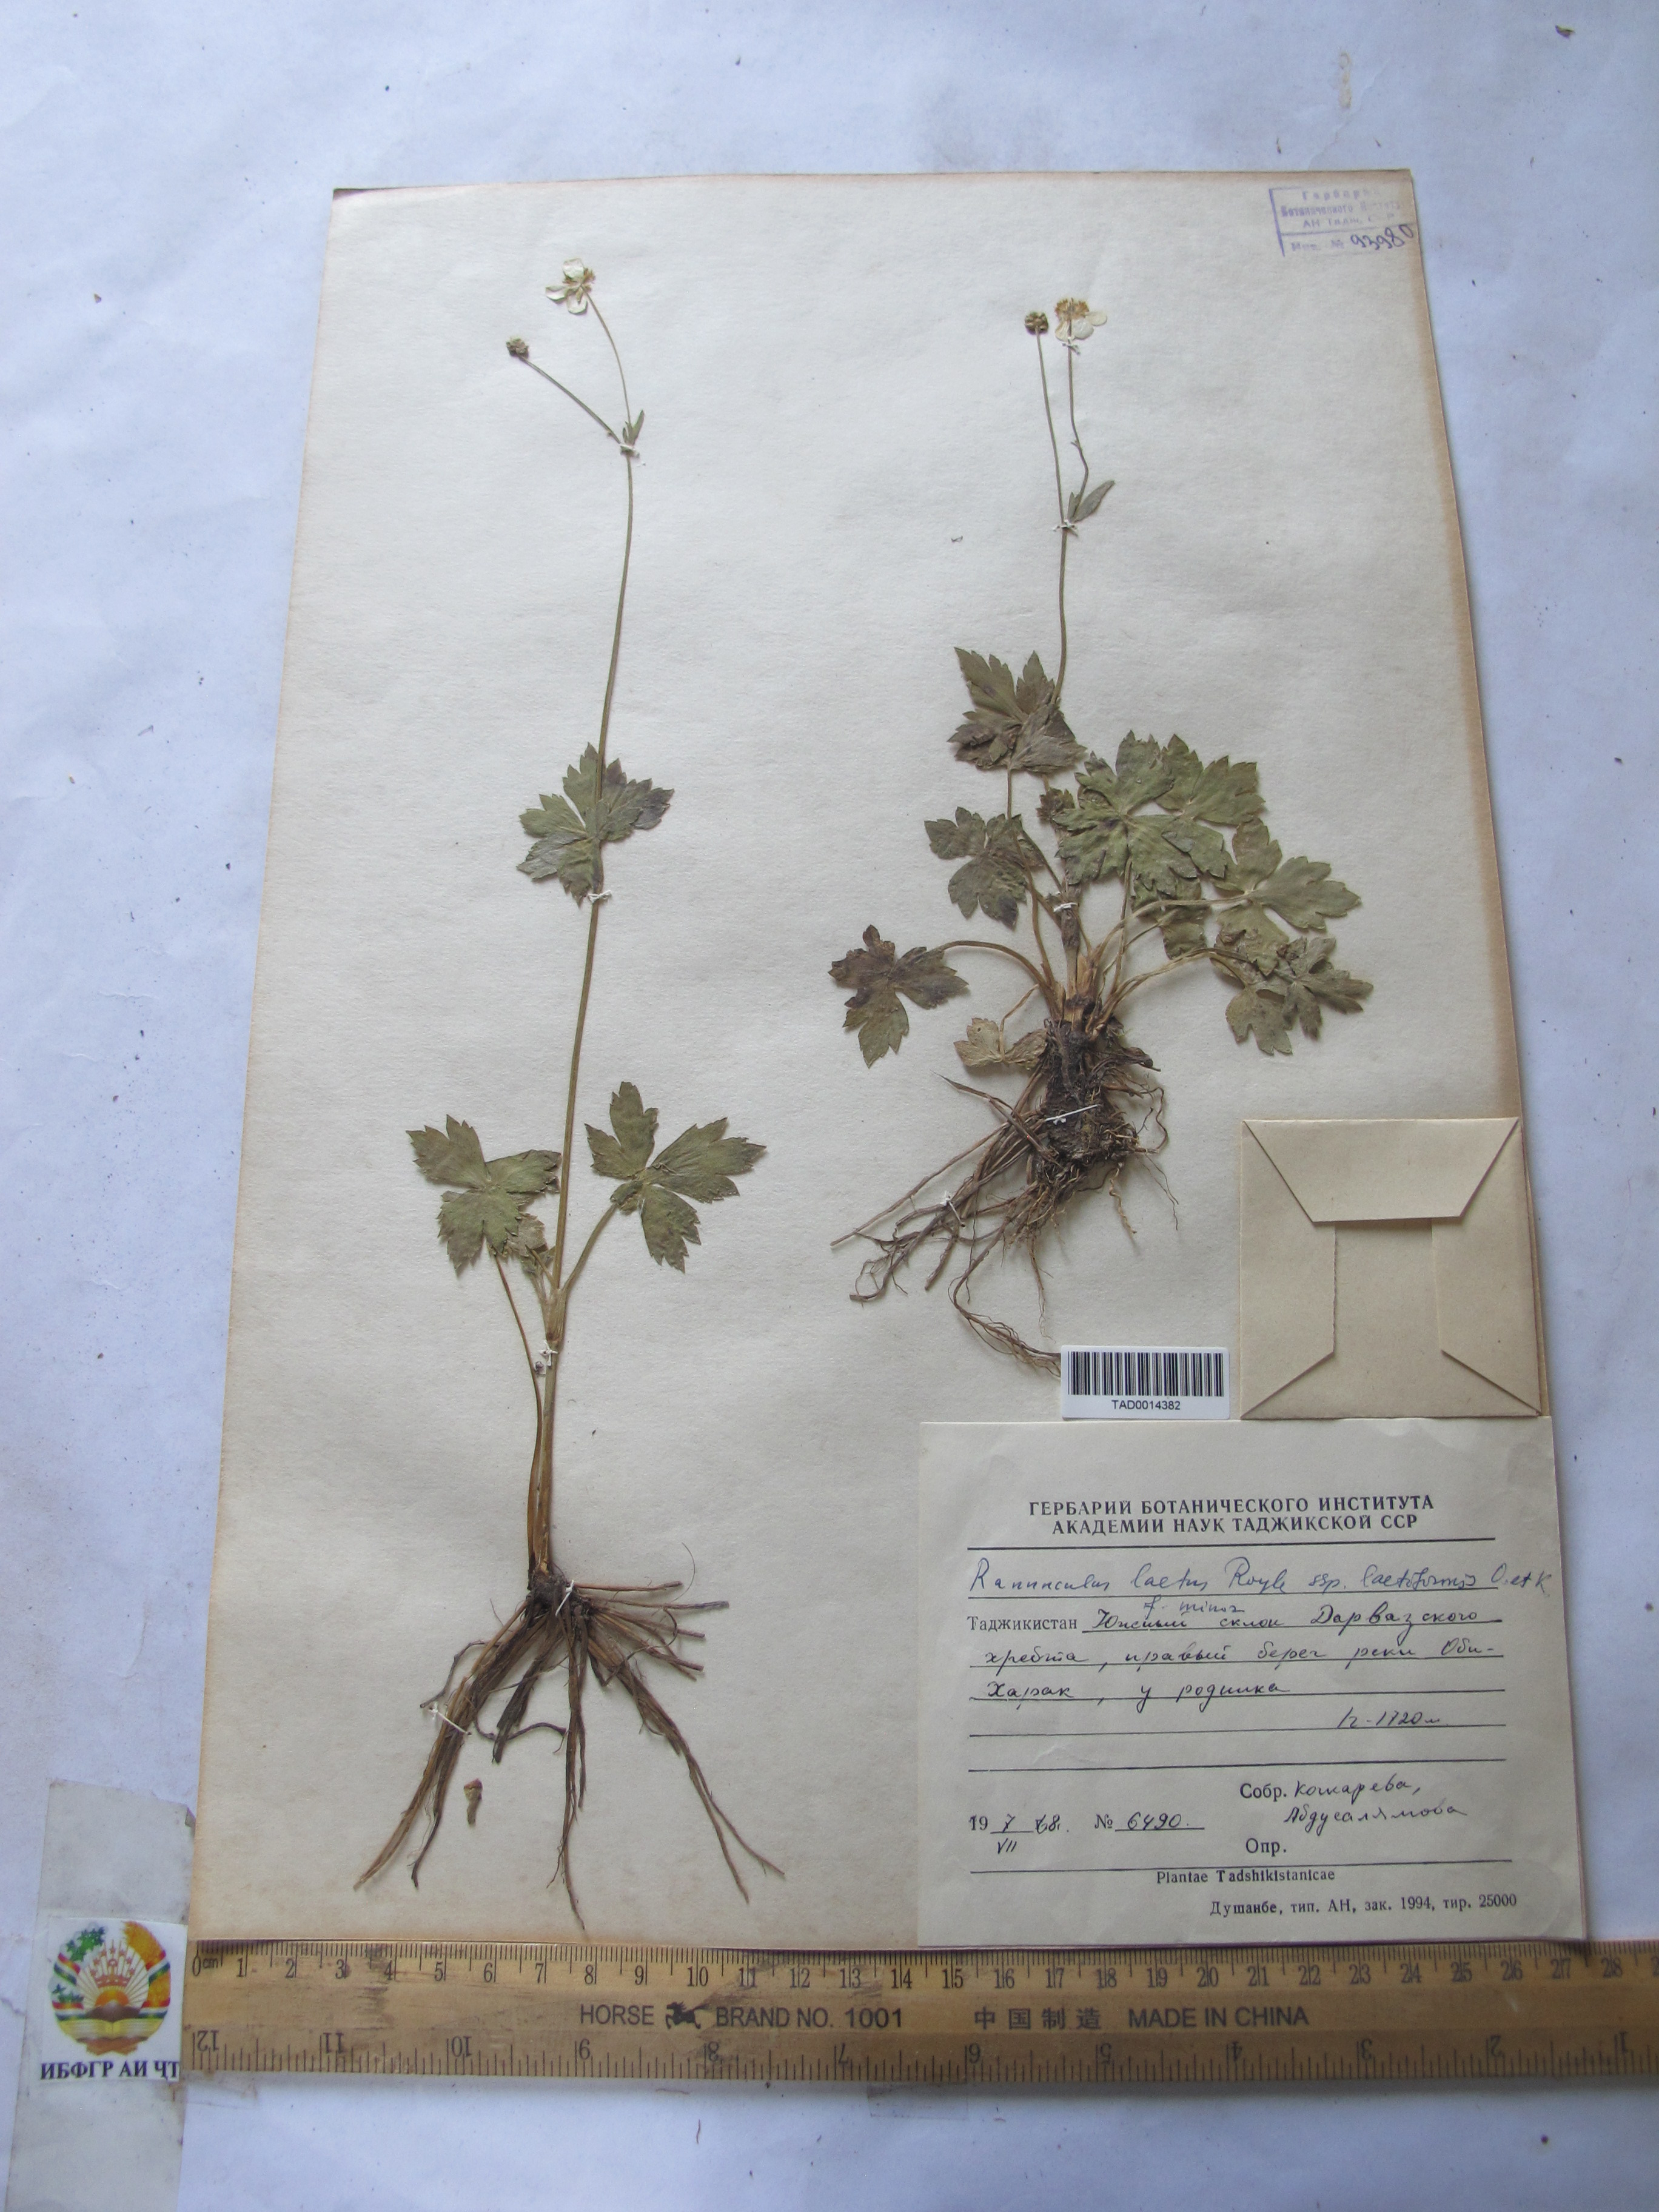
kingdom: Plantae
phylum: Tracheophyta
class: Magnoliopsida
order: Ranunculales
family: Ranunculaceae
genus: Ranunculus
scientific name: Ranunculus distans
